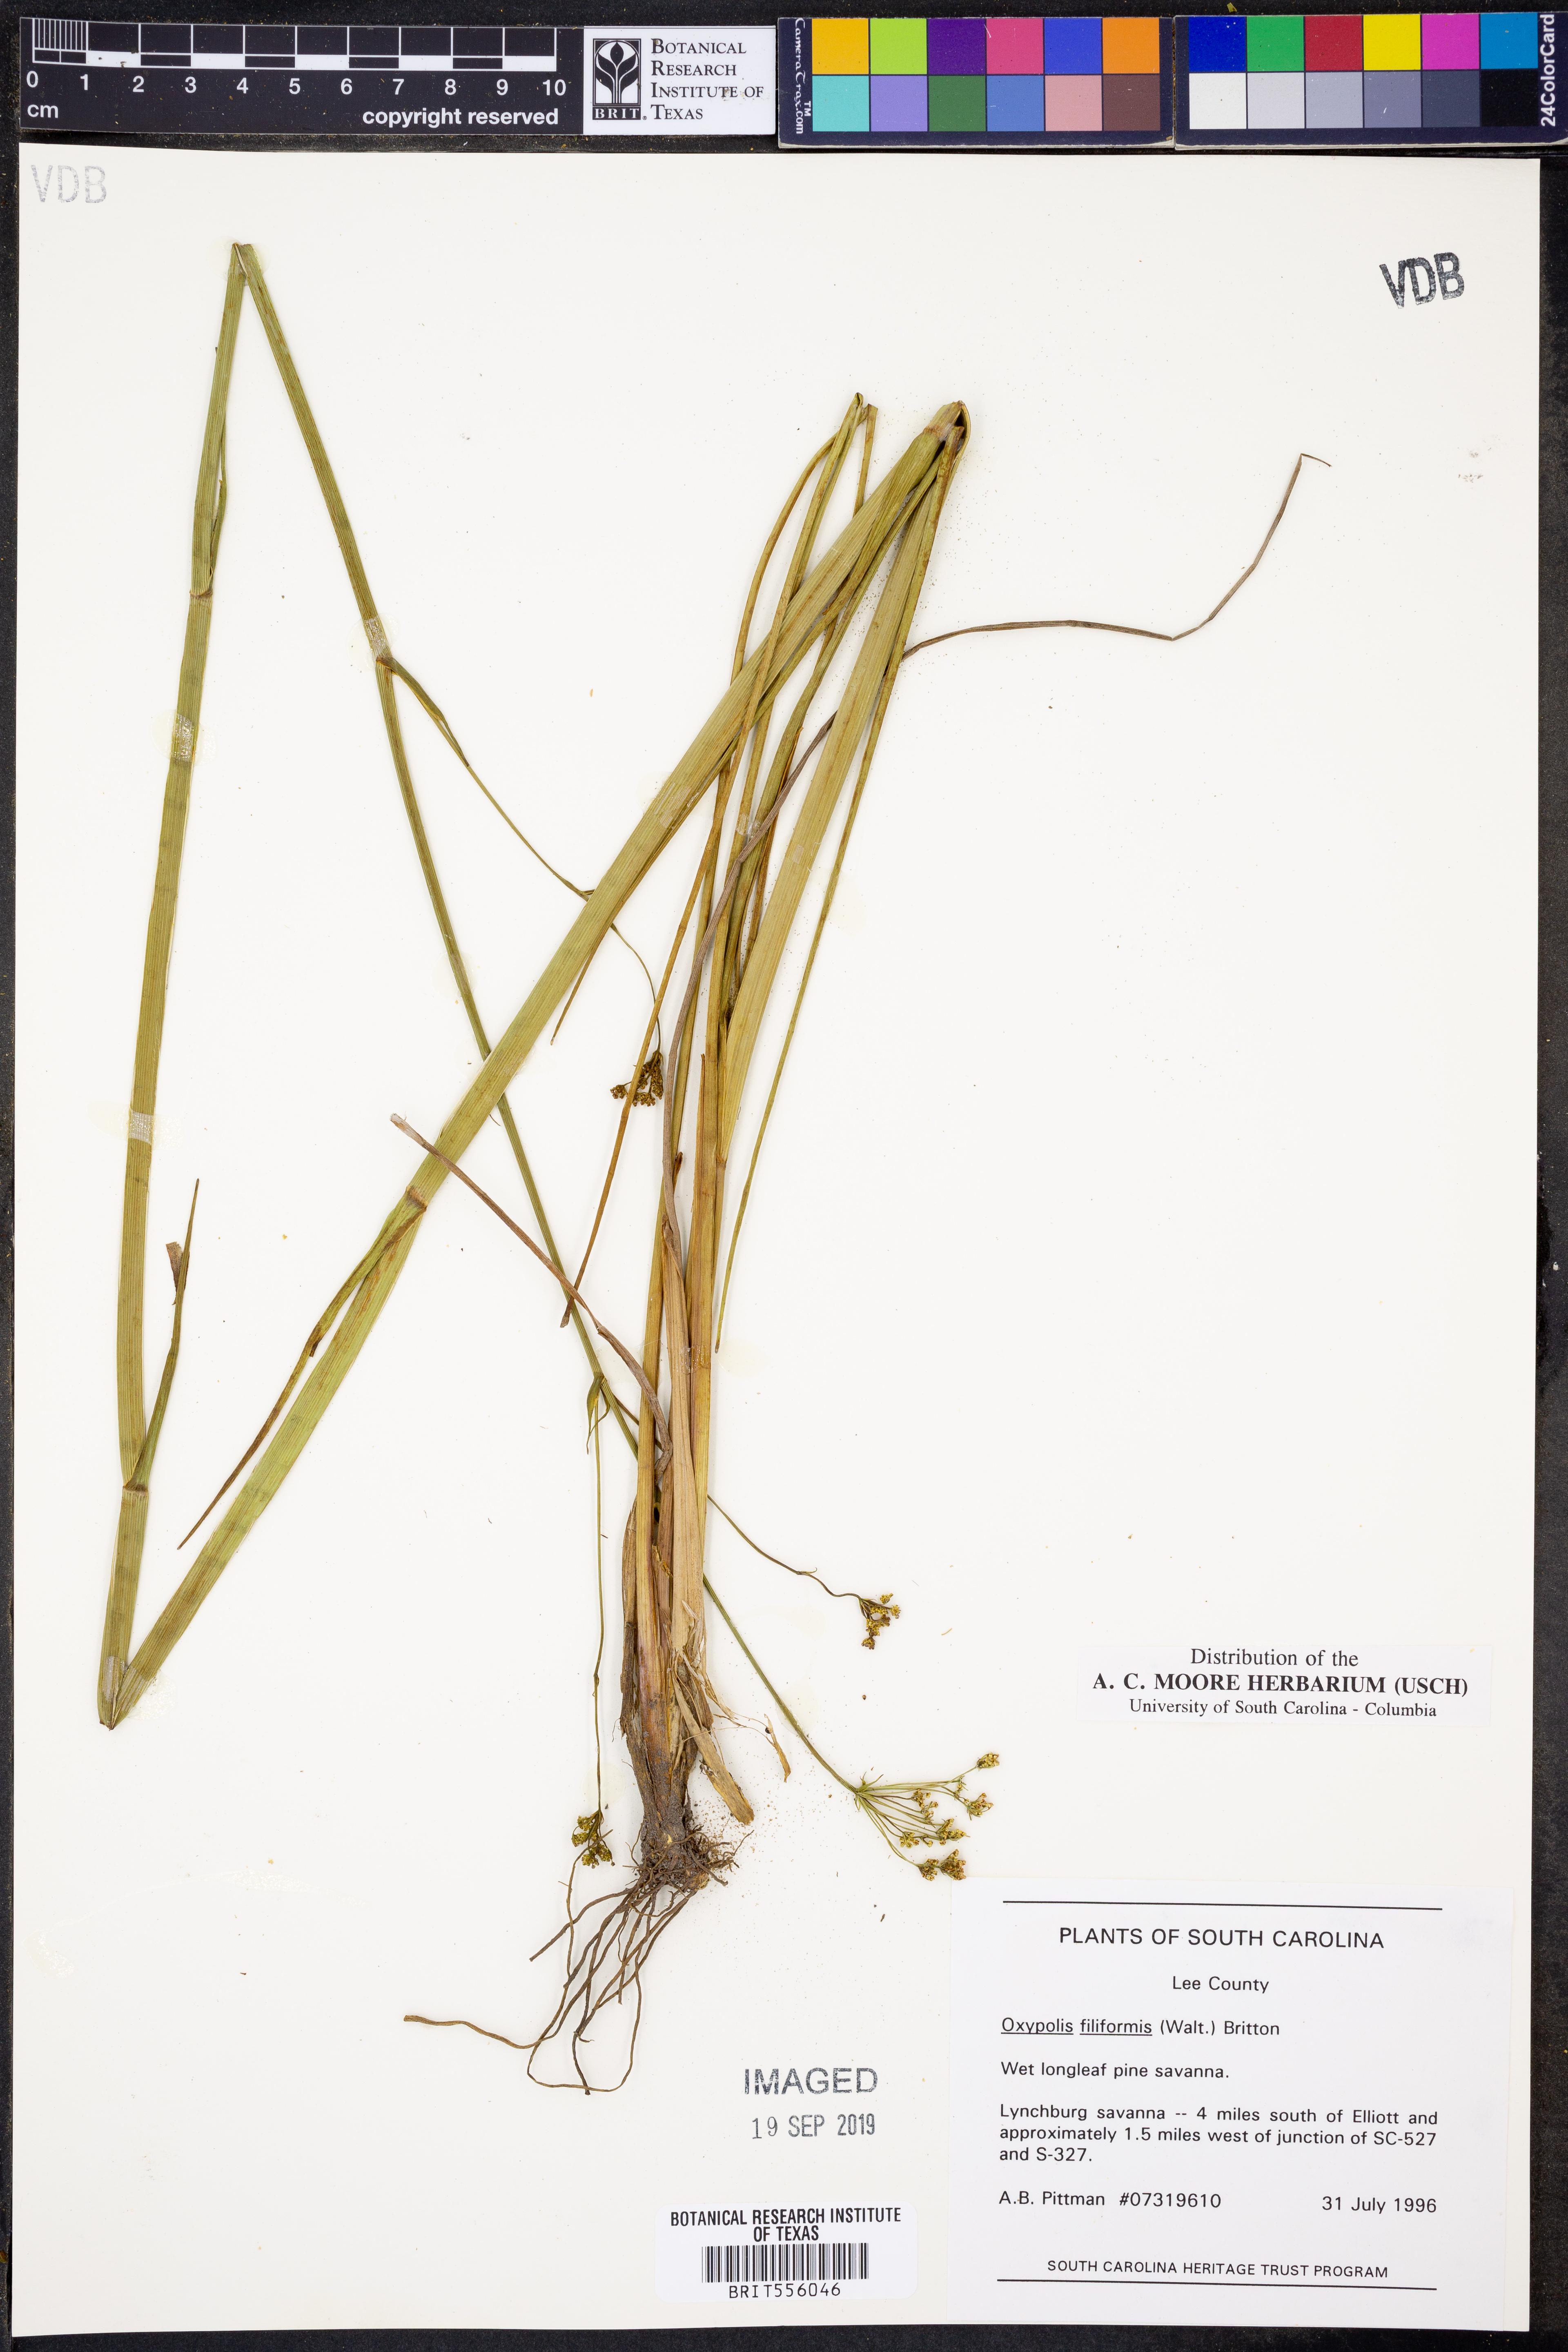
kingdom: Plantae
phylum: Tracheophyta
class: Magnoliopsida
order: Apiales
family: Apiaceae
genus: Tiedemannia
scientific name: Tiedemannia filiformis
